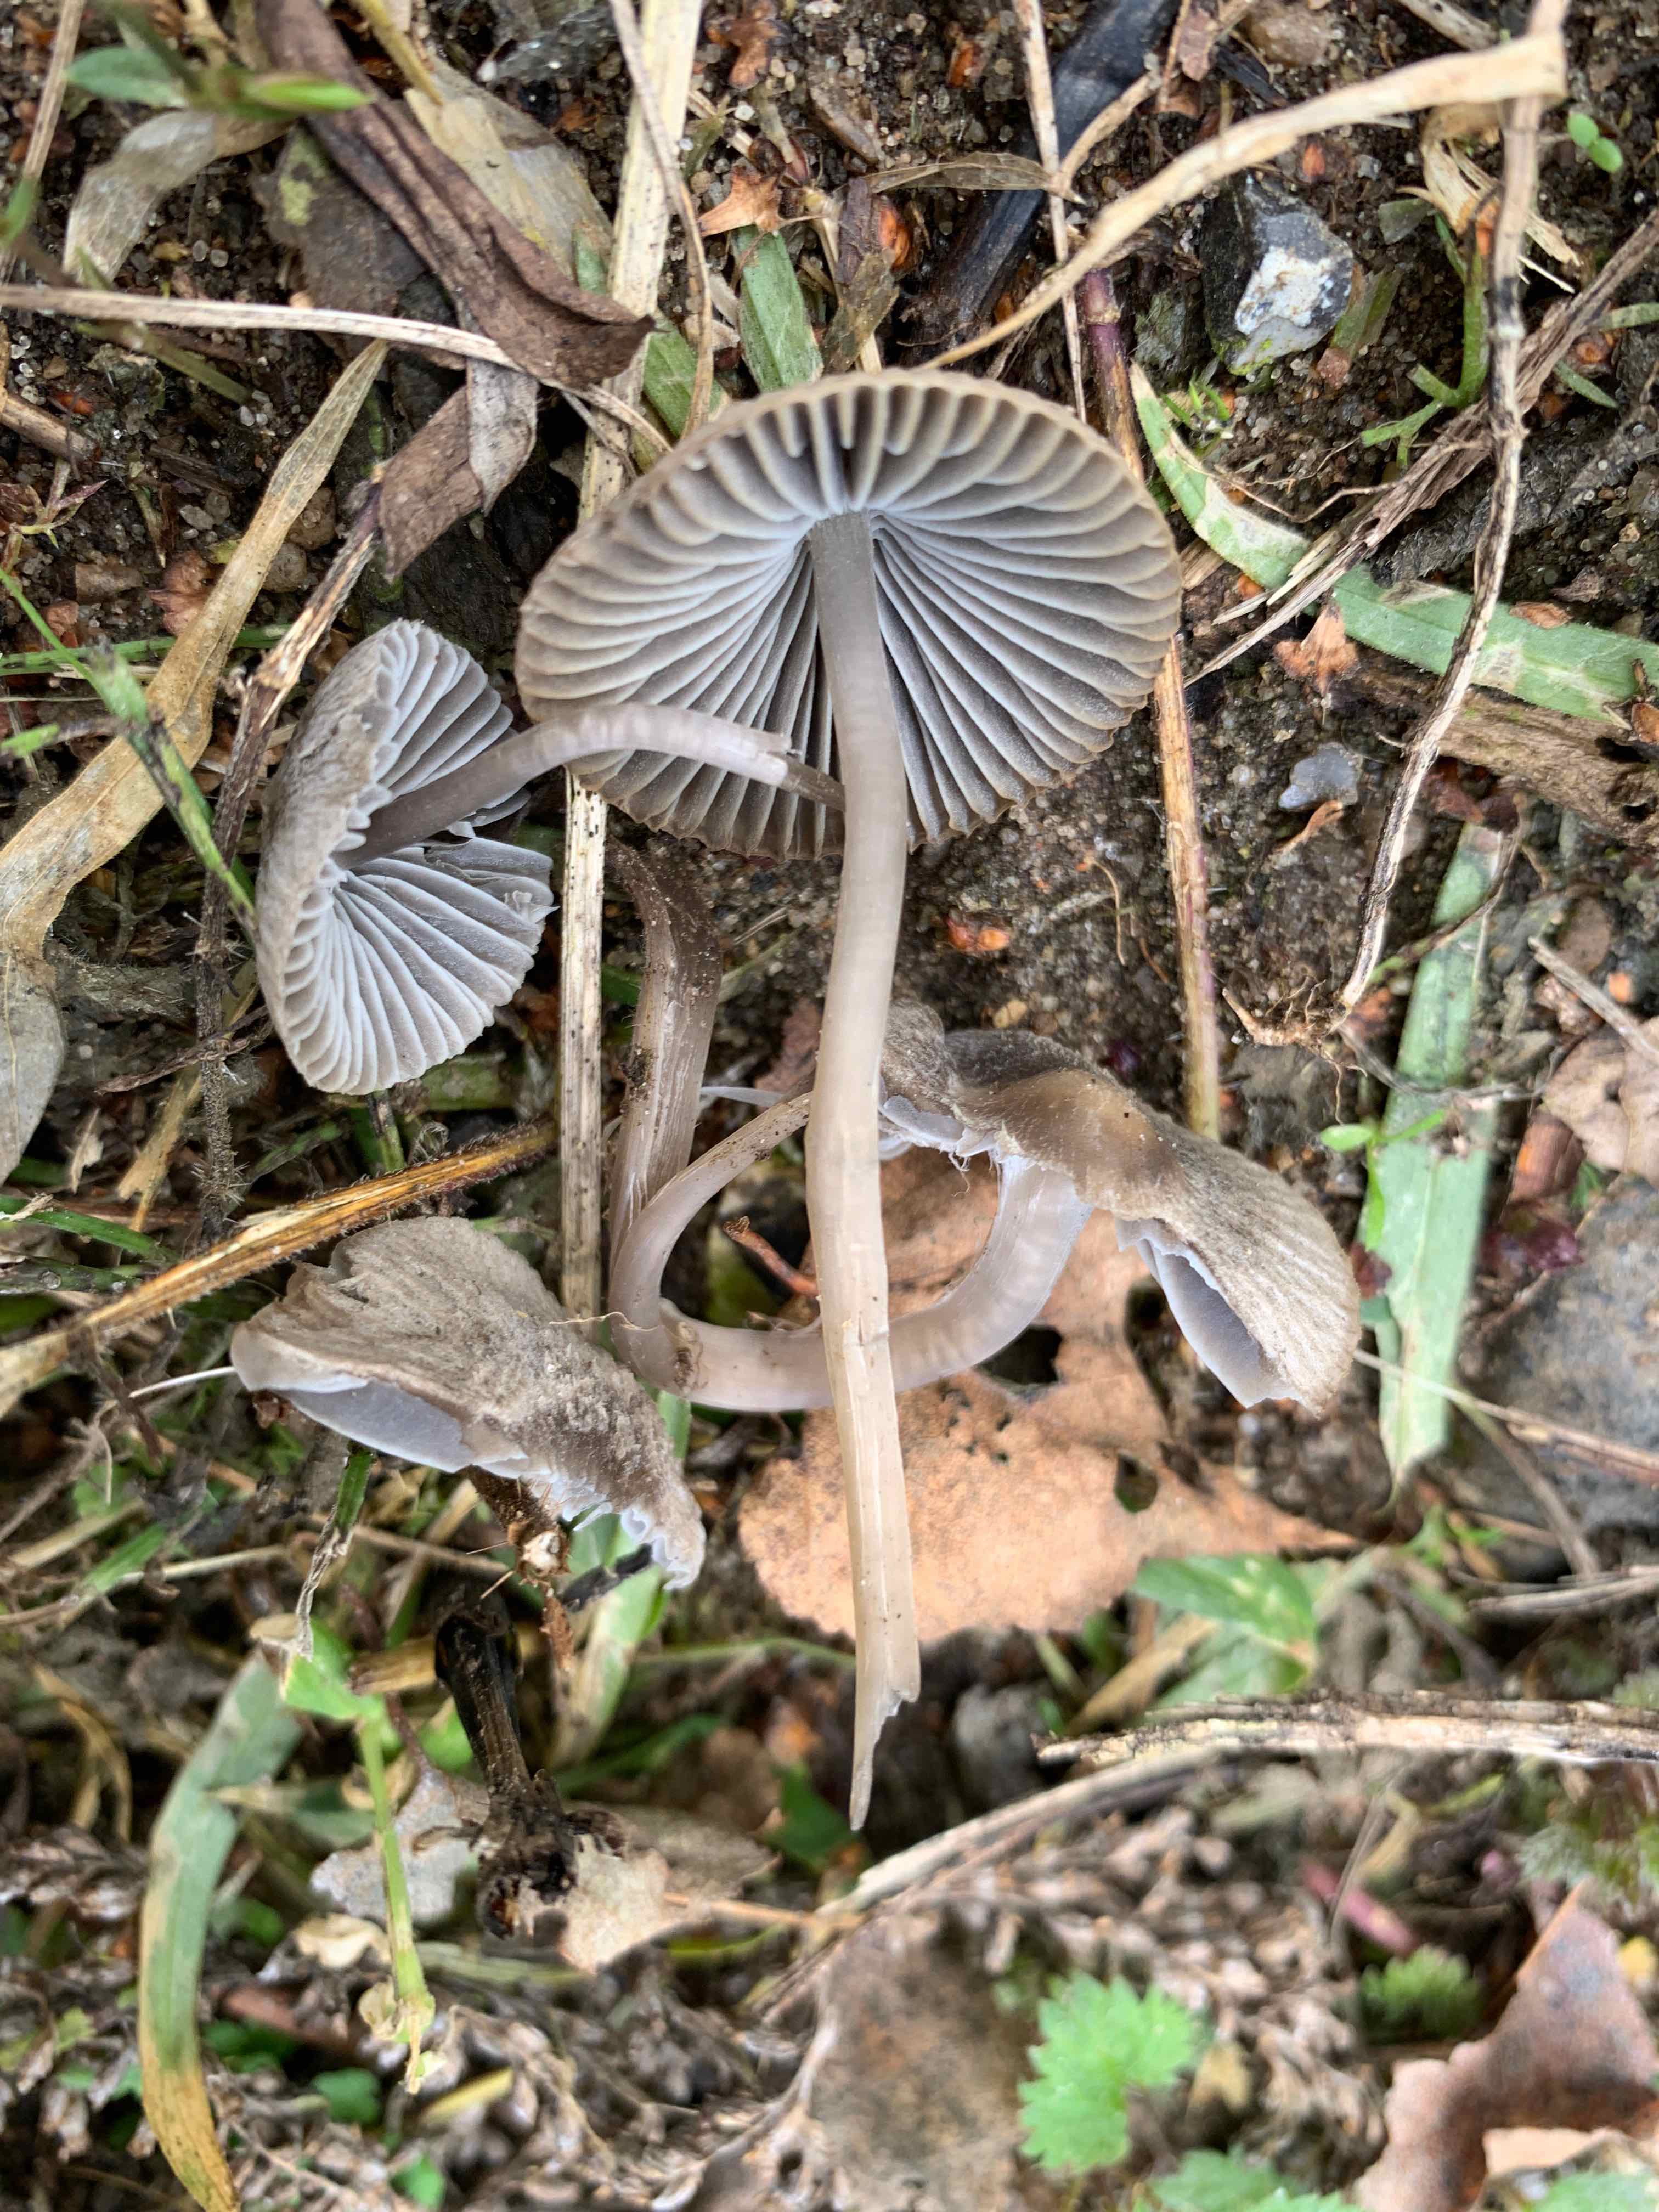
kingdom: Fungi
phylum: Basidiomycota
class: Agaricomycetes
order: Agaricales
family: Mycenaceae
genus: Mycena
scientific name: Mycena aetites
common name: plæne-huesvamp
